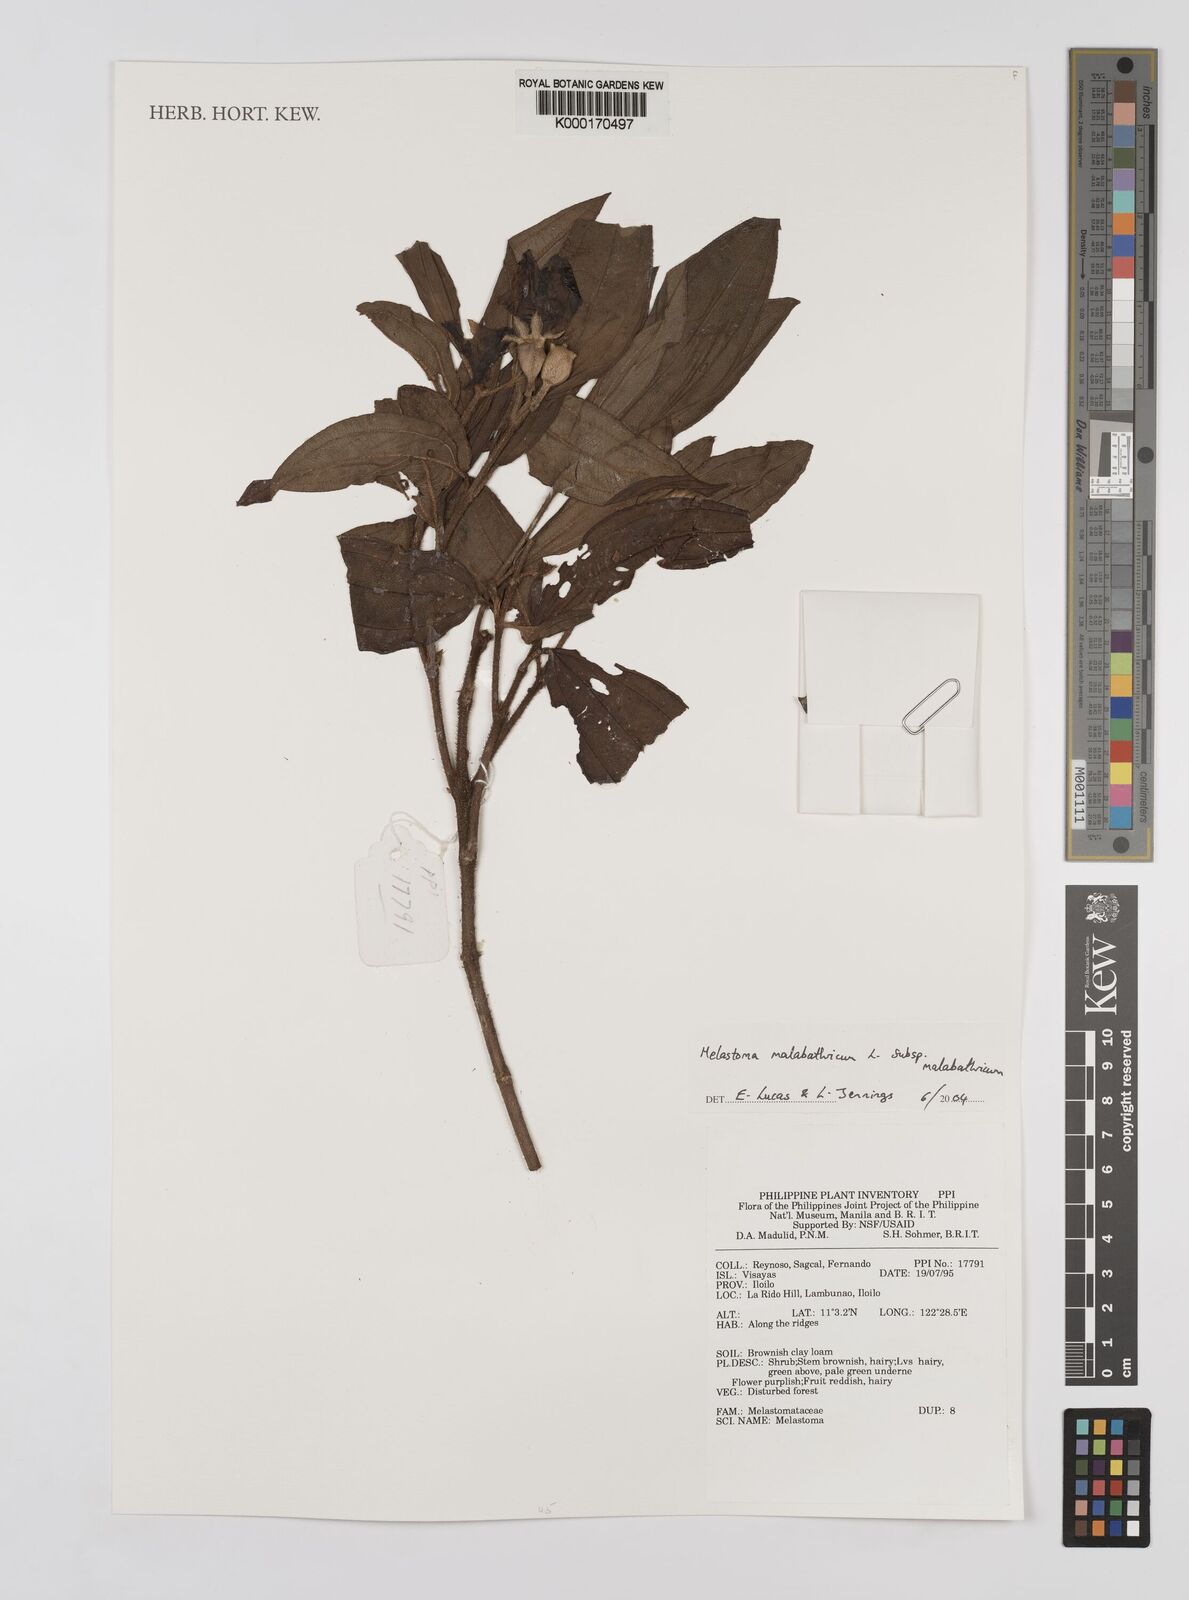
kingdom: Plantae
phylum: Tracheophyta
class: Magnoliopsida
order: Myrtales
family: Melastomataceae
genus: Melastoma
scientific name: Melastoma malabathricum
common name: Indian-rhododendron
